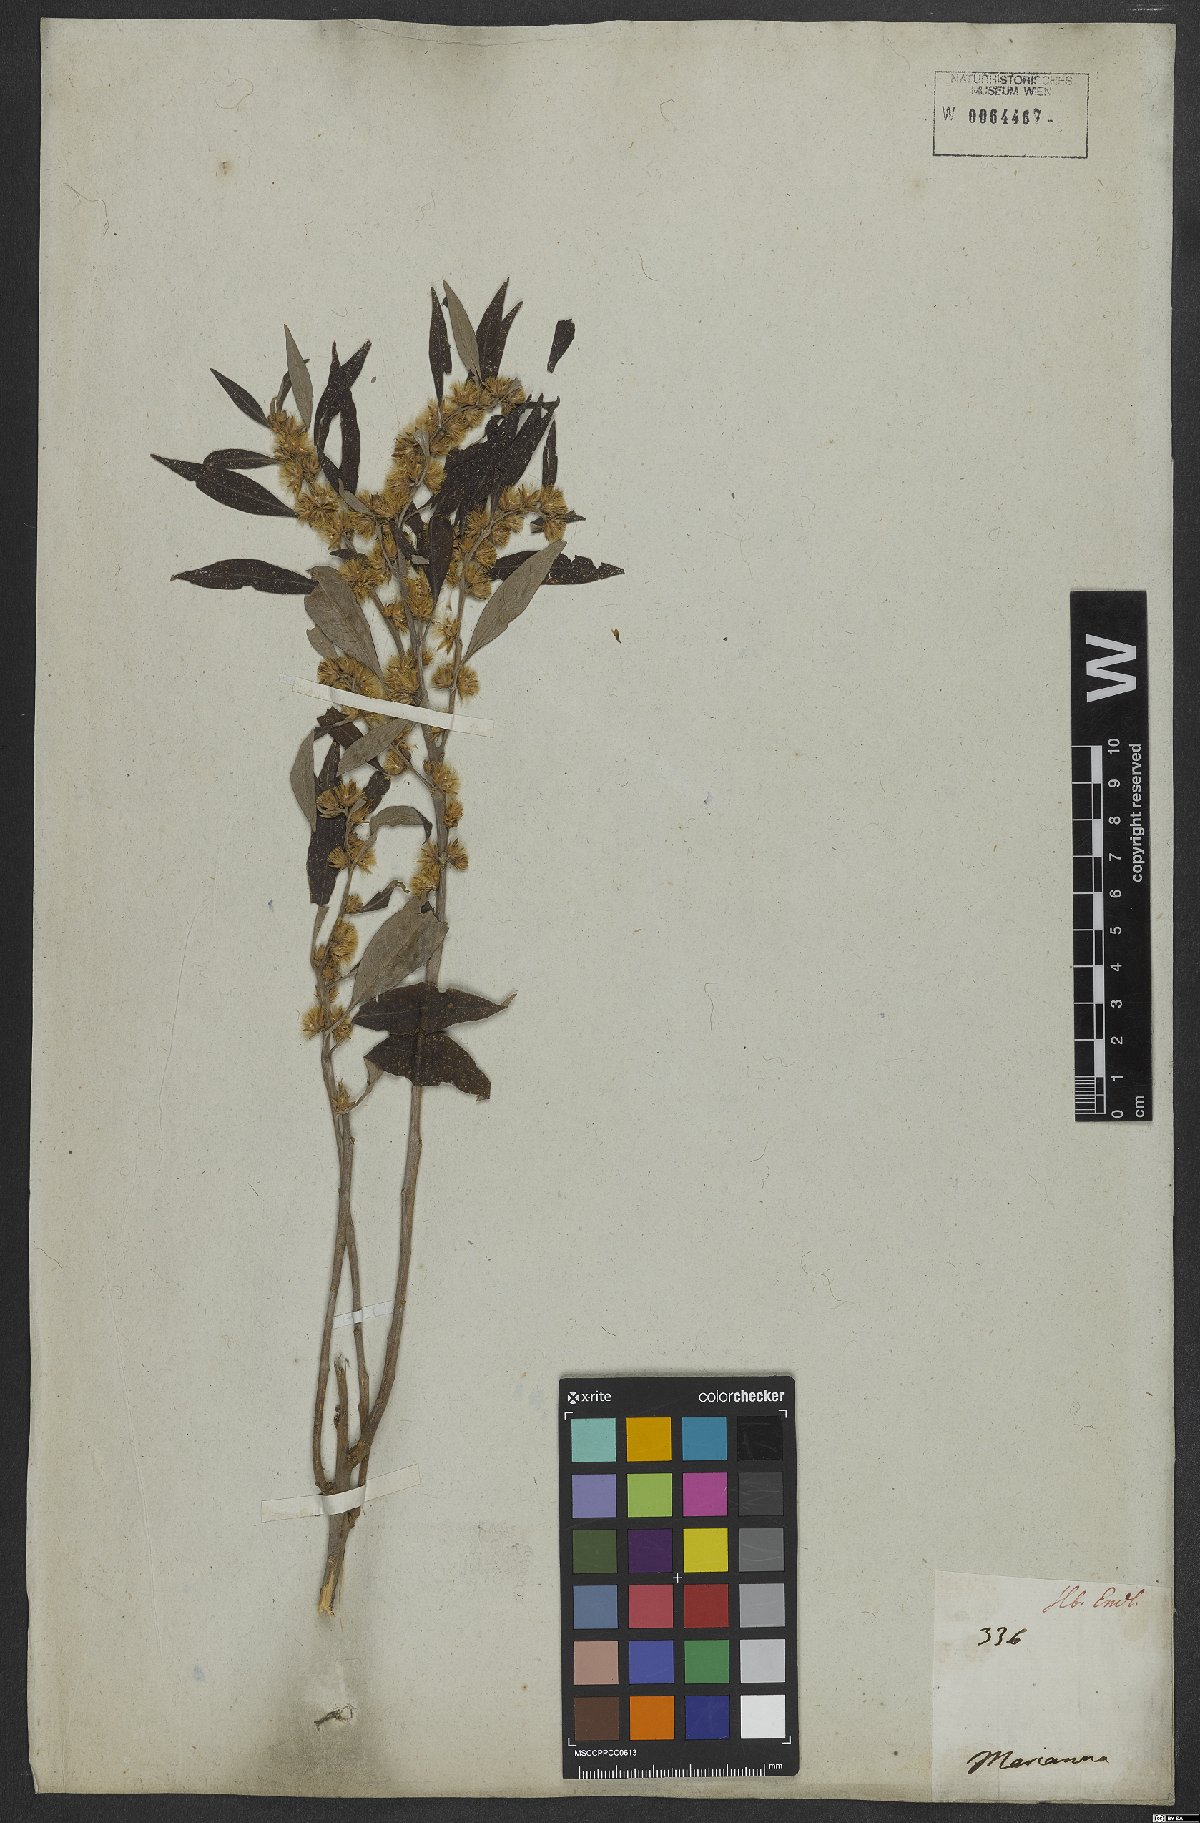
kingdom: Plantae
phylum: Tracheophyta
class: Magnoliopsida
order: Asterales
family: Asteraceae
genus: Lepidaploa
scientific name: Lepidaploa canescens
